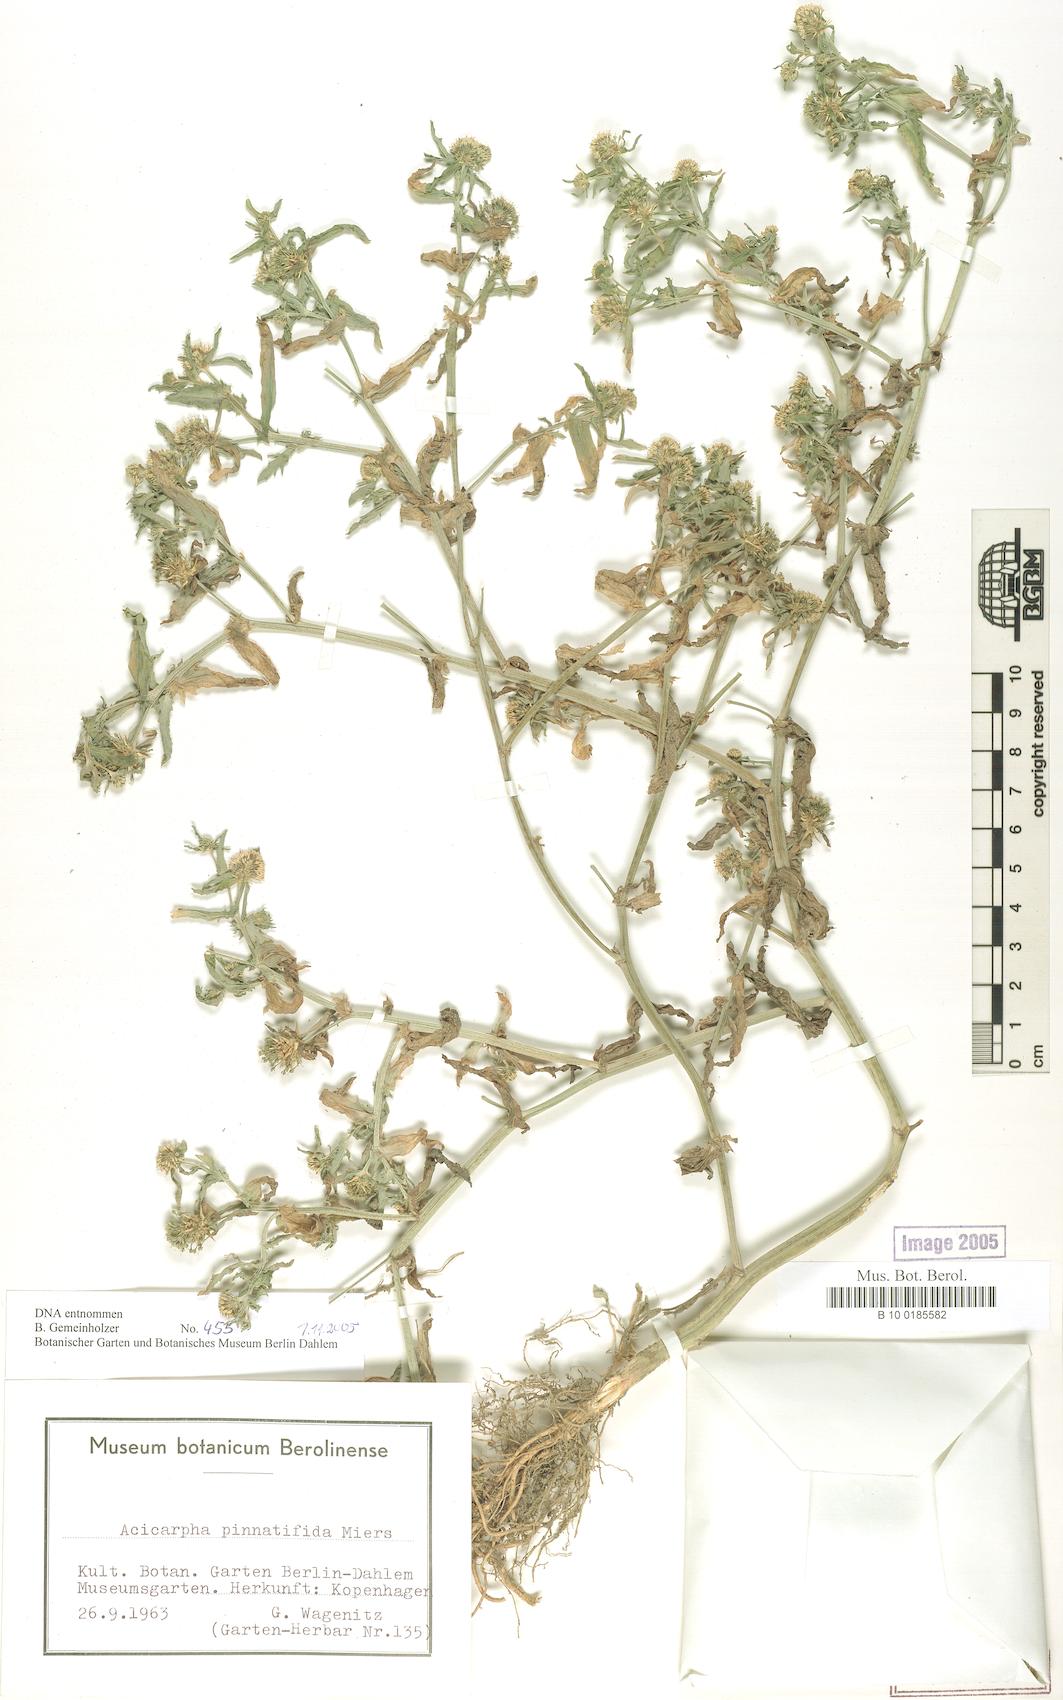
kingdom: Plantae
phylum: Tracheophyta
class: Magnoliopsida
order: Asterales
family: Calyceraceae
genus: Acicarpha
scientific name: Acicarpha tribuloides
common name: Madam gorgon
